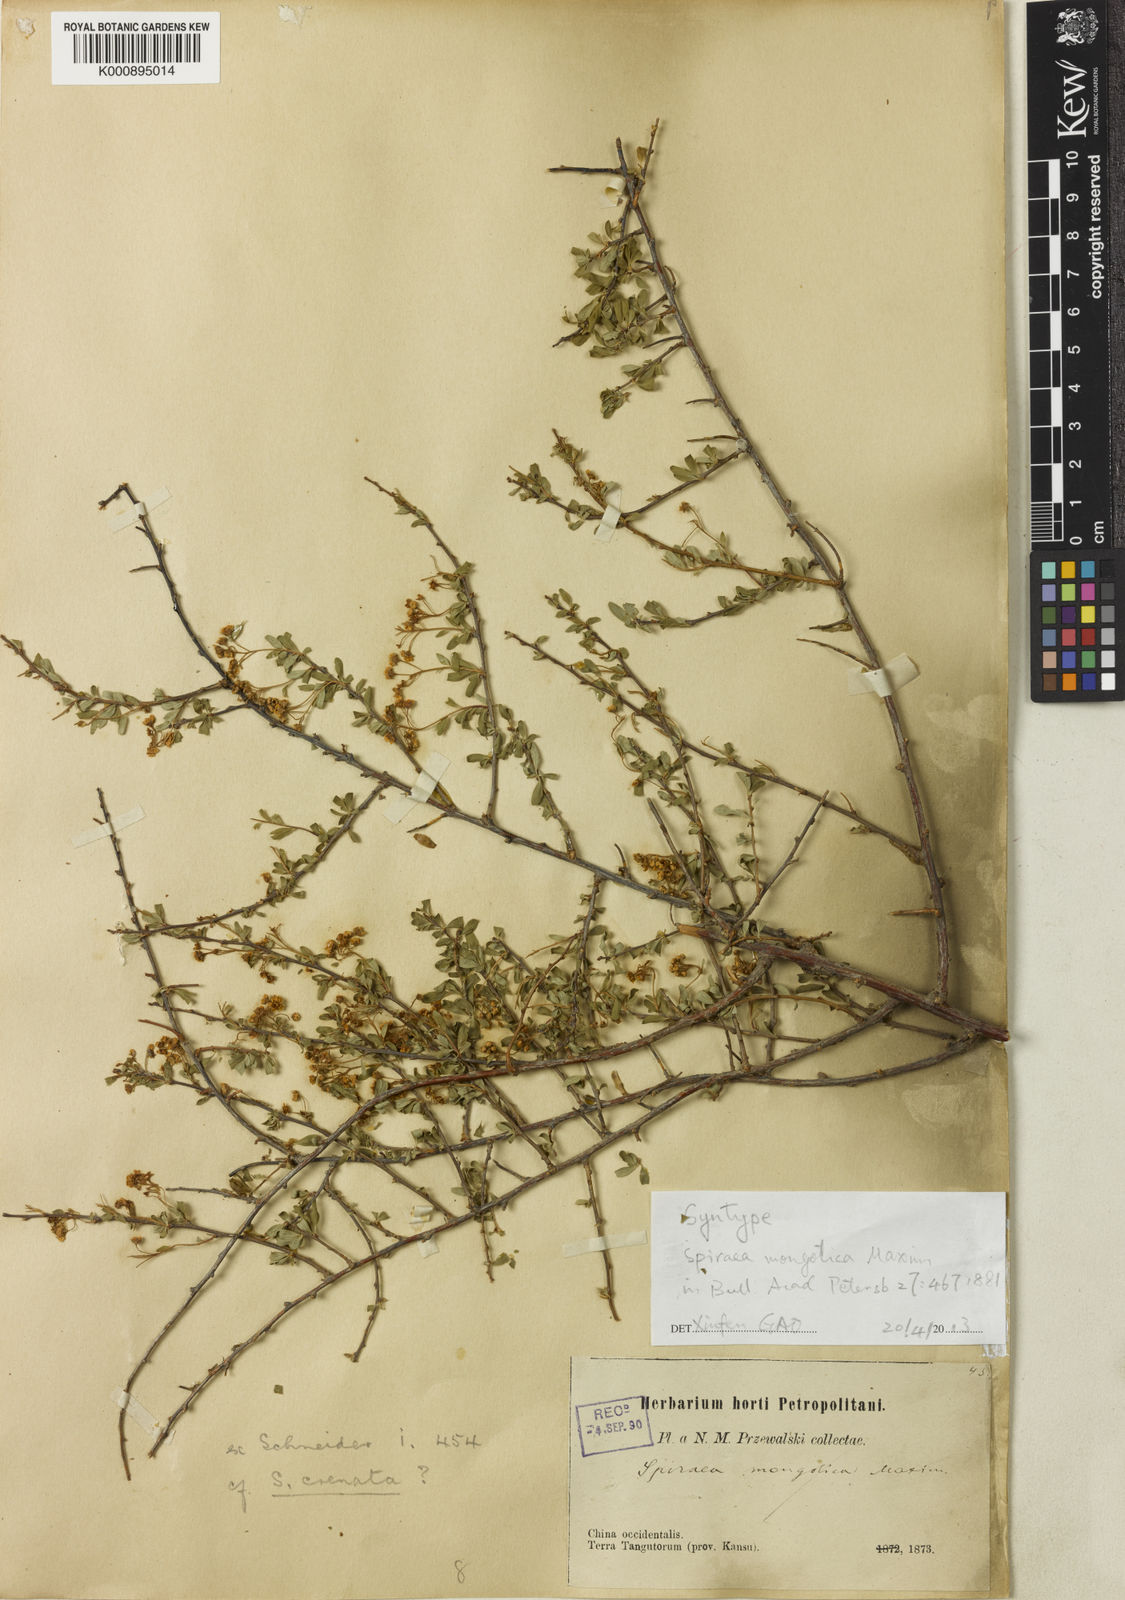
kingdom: Plantae
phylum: Tracheophyta
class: Magnoliopsida
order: Rosales
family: Rosaceae
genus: Spiraea
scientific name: Spiraea mongolica
